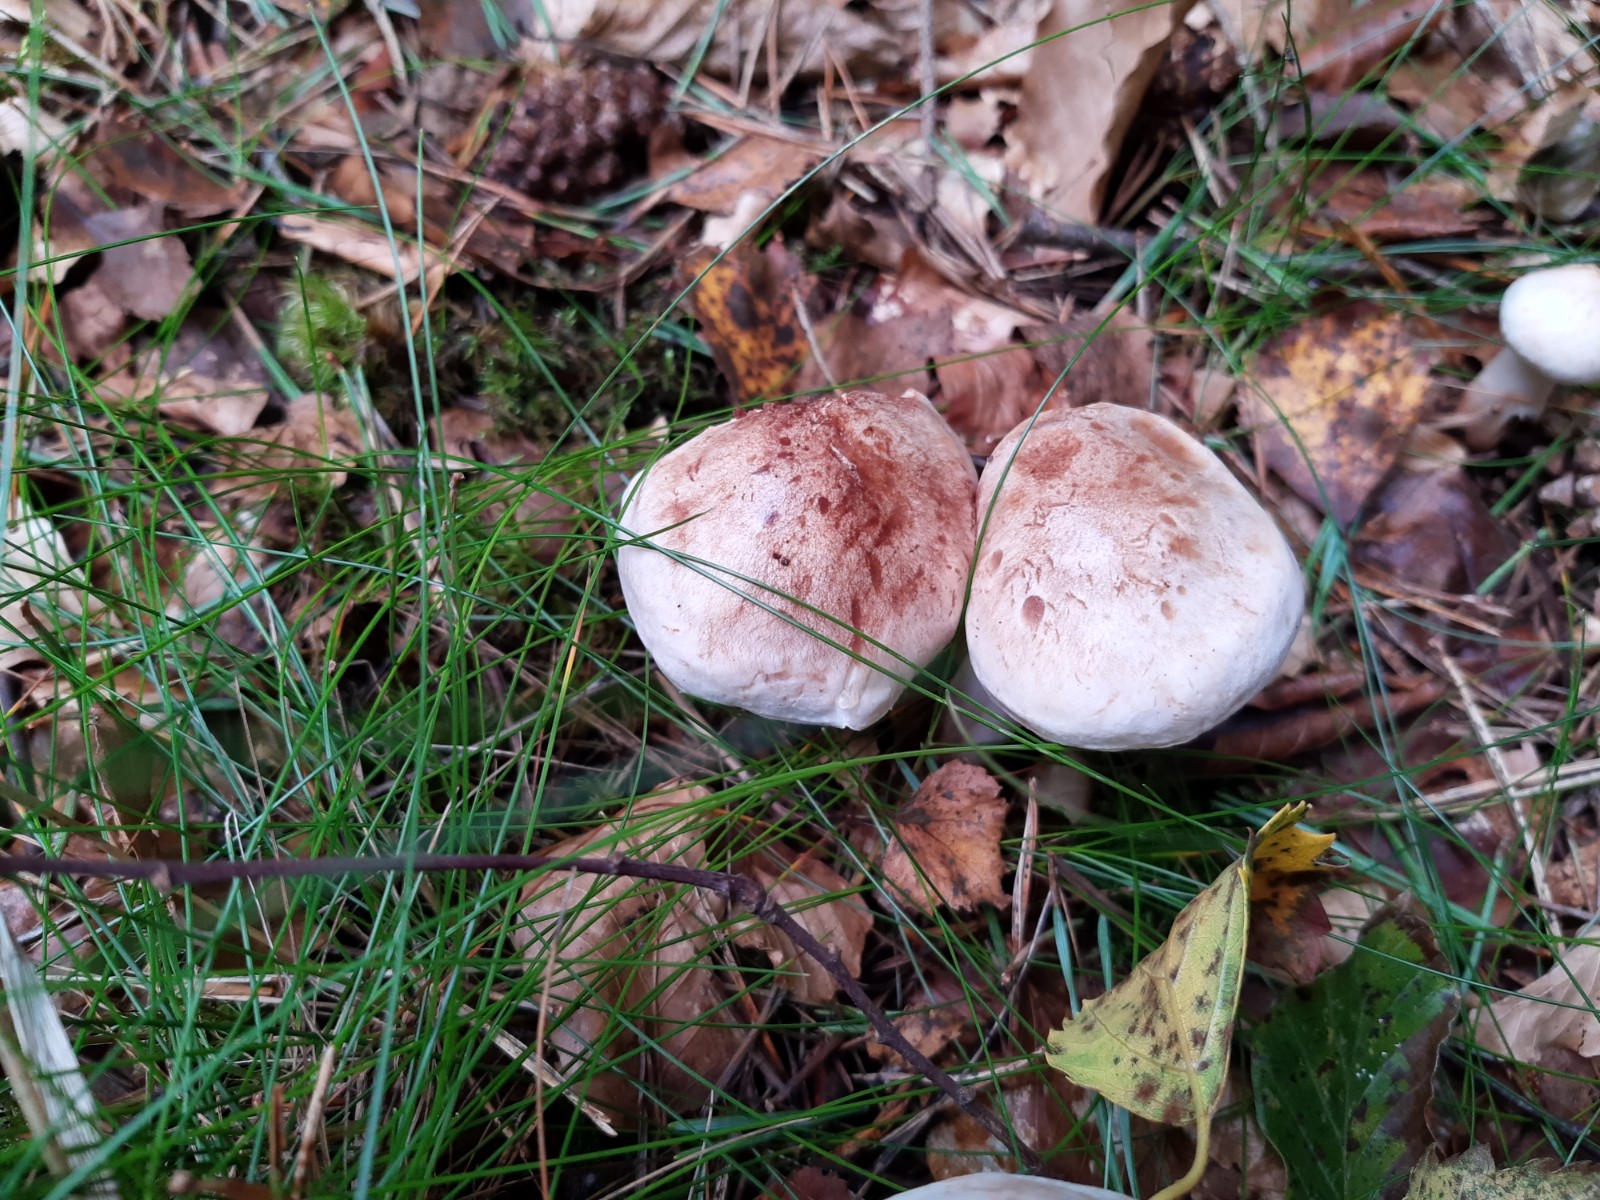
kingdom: Fungi
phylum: Basidiomycota
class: Agaricomycetes
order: Agaricales
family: Omphalotaceae
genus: Rhodocollybia
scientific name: Rhodocollybia maculata
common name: plettet fladhat
